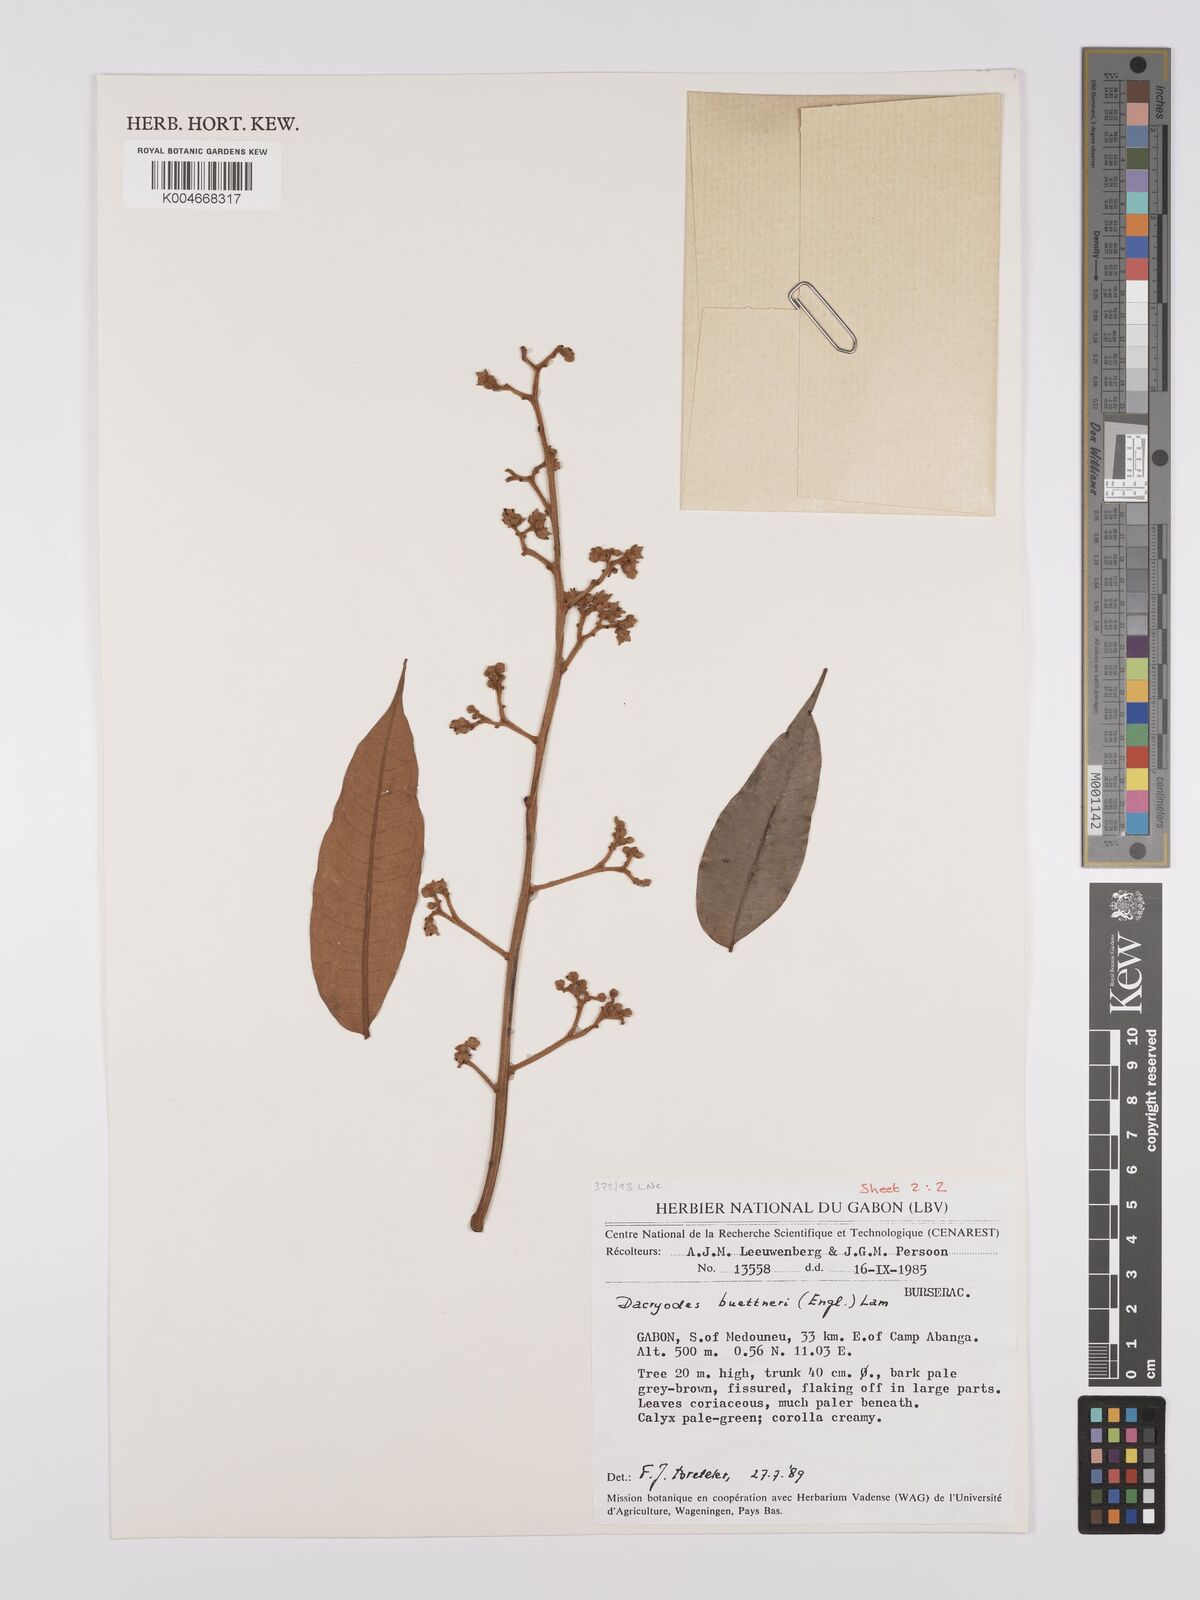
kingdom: Plantae
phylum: Tracheophyta
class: Magnoliopsida
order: Sapindales
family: Burseraceae
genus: Pachylobus
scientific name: Pachylobus buettneri
